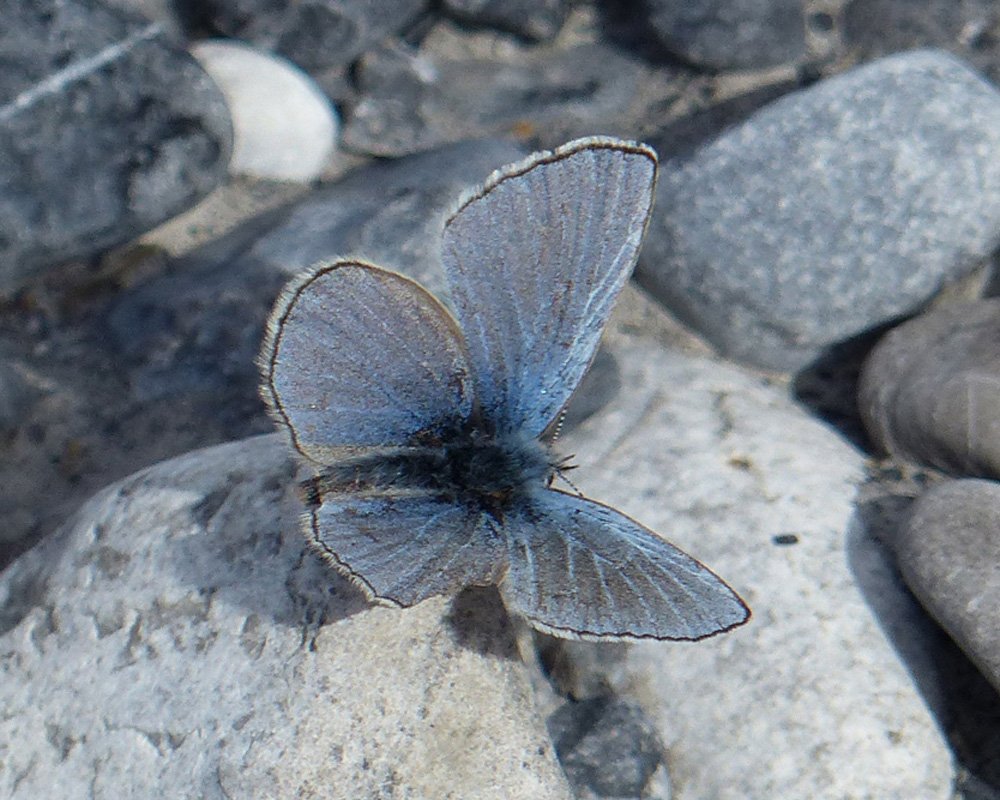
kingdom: Animalia
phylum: Arthropoda
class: Insecta
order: Lepidoptera
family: Lycaenidae
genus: Glaucopsyche
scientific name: Glaucopsyche lygdamus
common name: Silvery Blue
